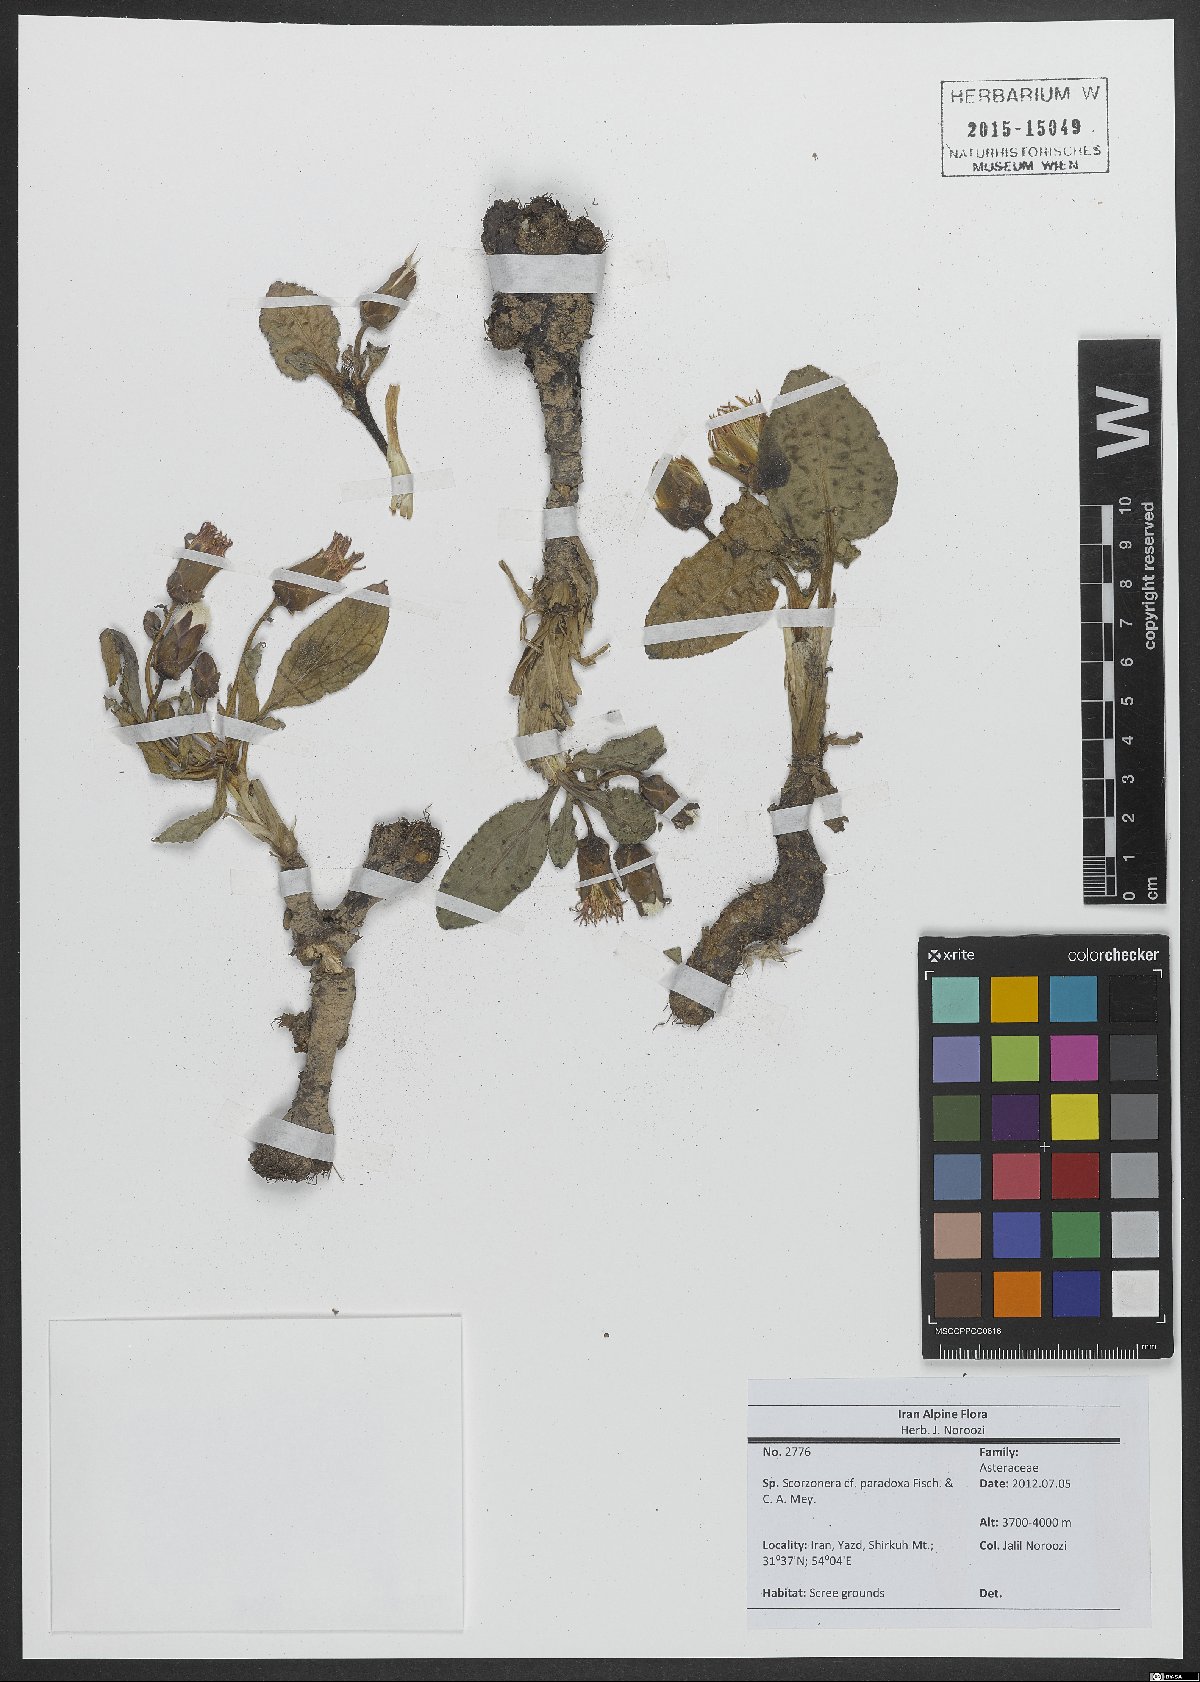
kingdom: Plantae
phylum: Tracheophyta
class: Magnoliopsida
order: Asterales
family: Asteraceae
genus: Scorzonera
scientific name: Scorzonera paradoxa
